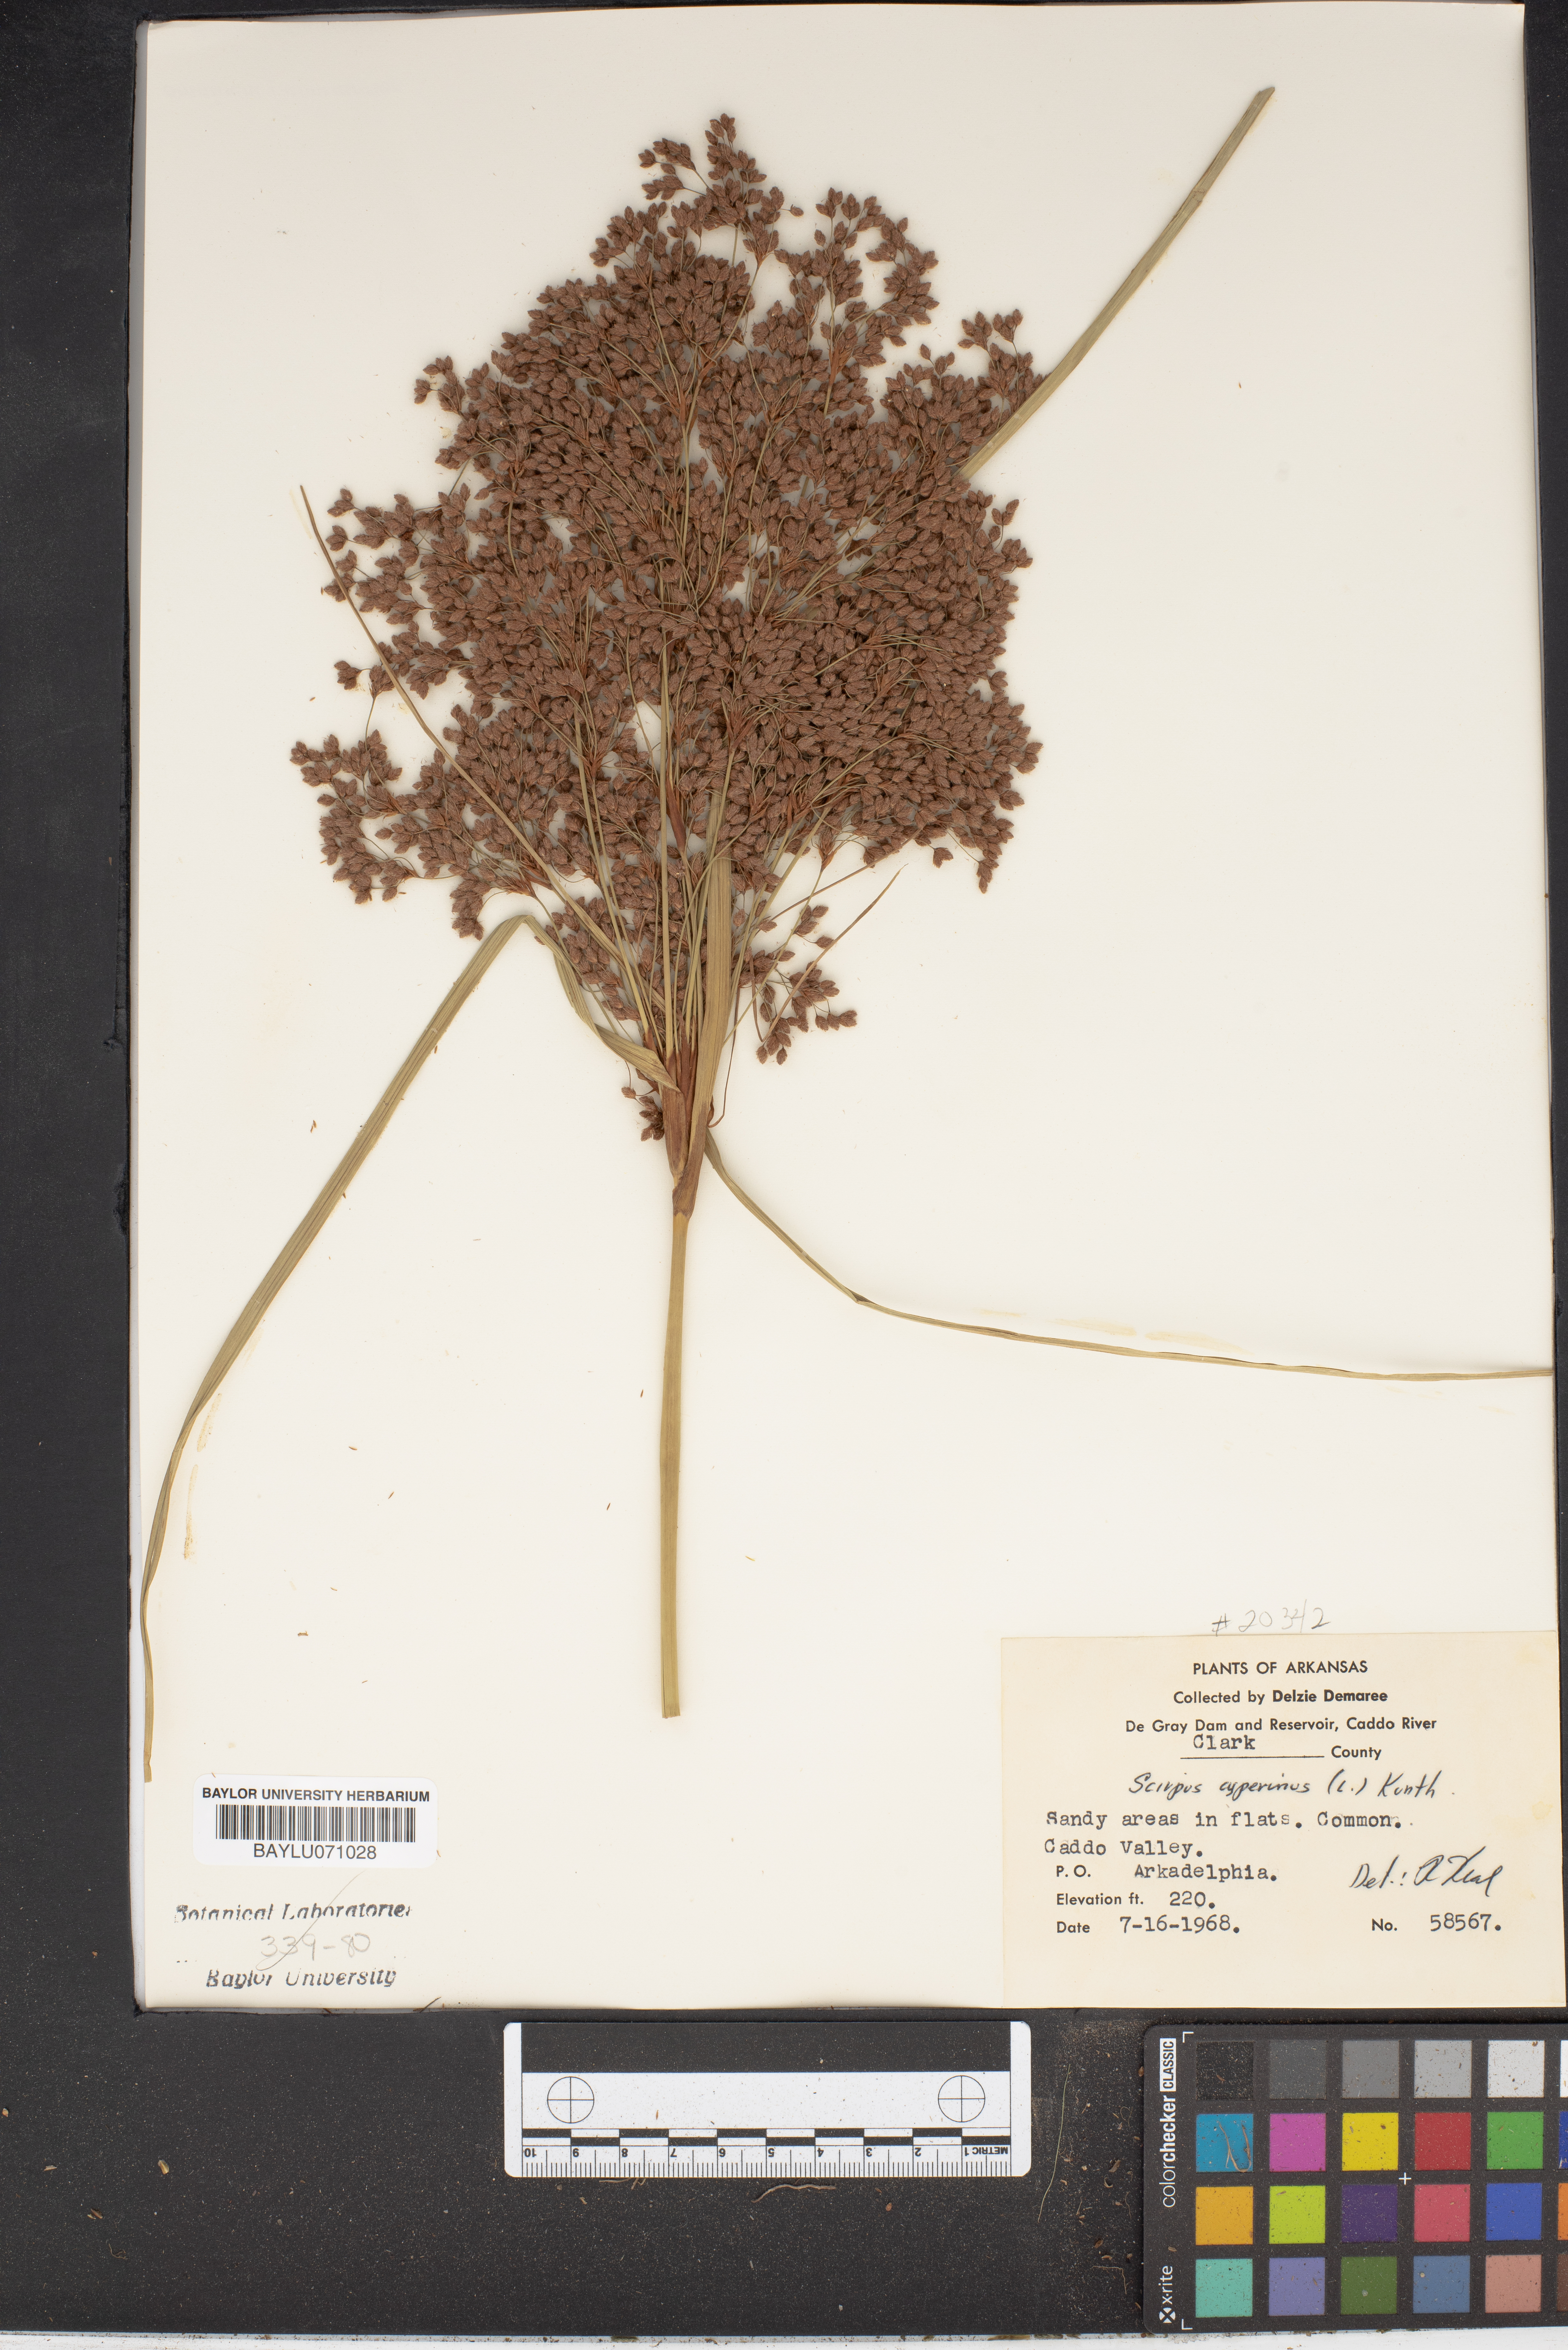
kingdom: Plantae
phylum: Tracheophyta
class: Liliopsida
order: Poales
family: Cyperaceae
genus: Scirpus
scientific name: Scirpus cyperinus
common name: Black-sheathed bulrush
